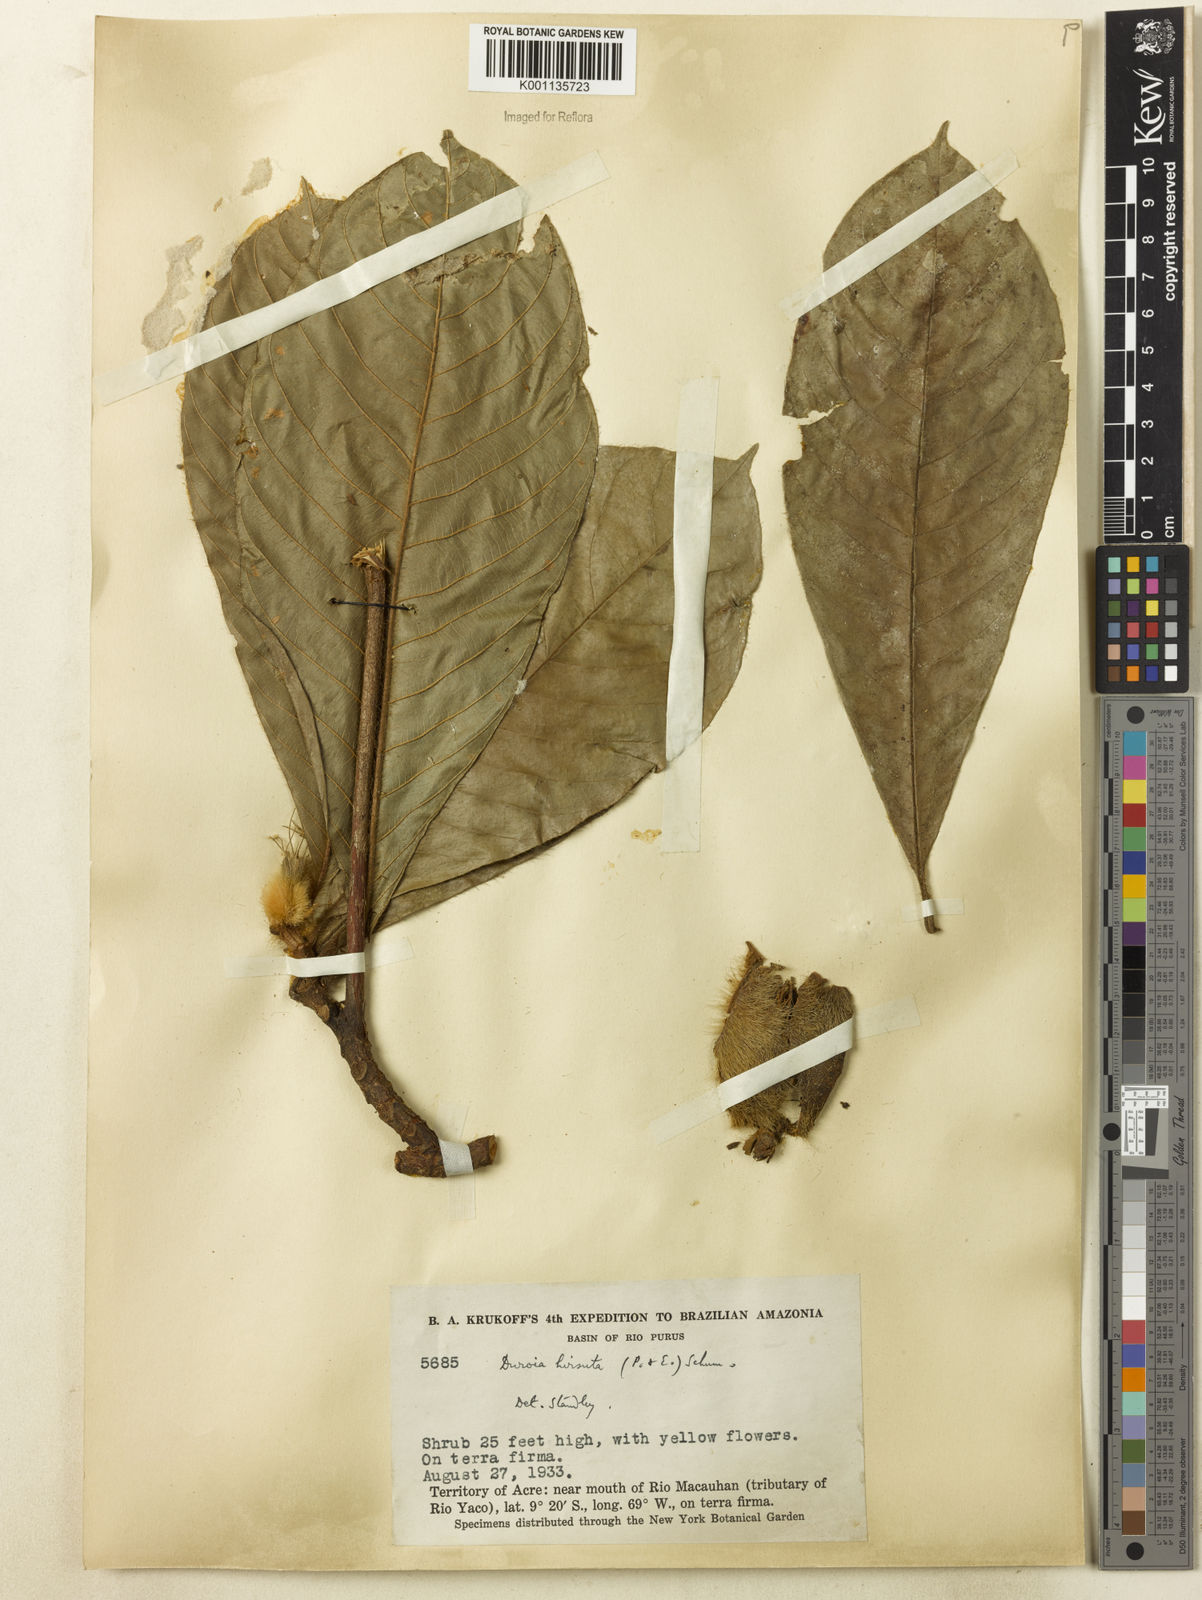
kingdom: Plantae
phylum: Tracheophyta
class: Magnoliopsida
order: Gentianales
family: Rubiaceae
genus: Duroia
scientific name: Duroia hirsuta
